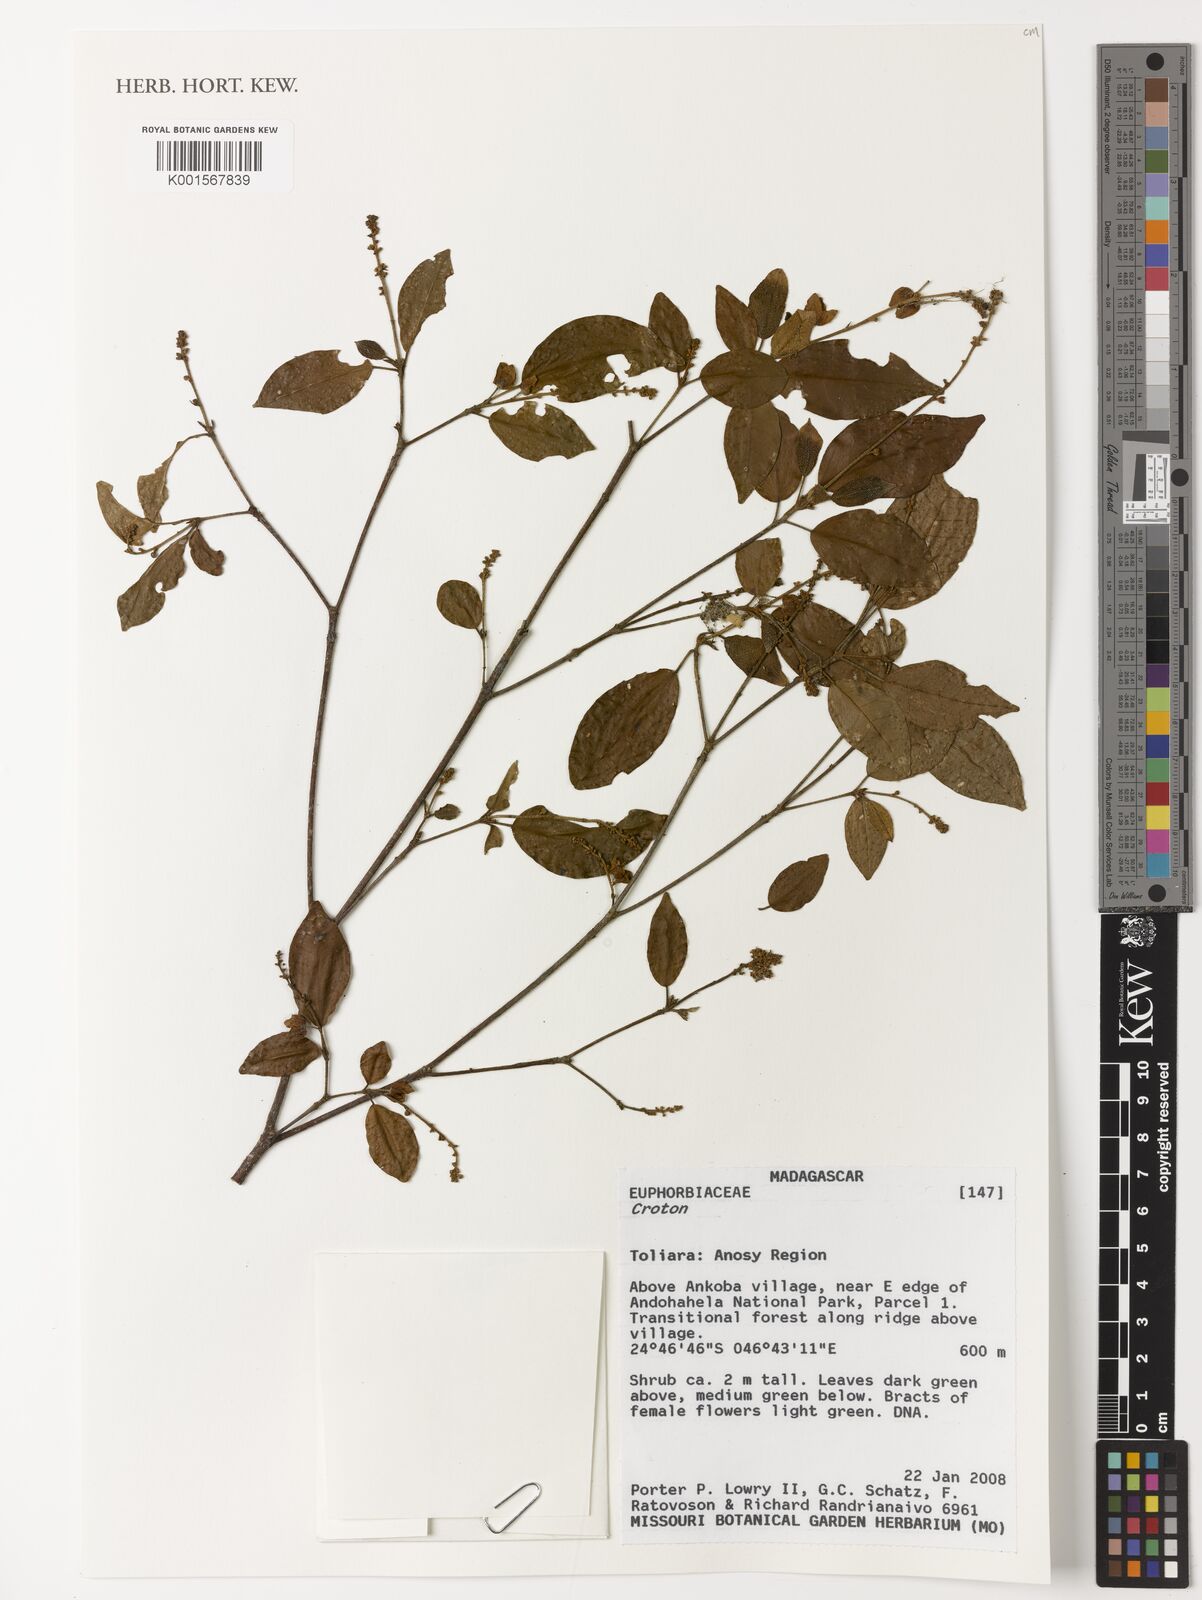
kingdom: Plantae
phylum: Tracheophyta
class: Magnoliopsida
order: Malpighiales
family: Euphorbiaceae
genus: Croton
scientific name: Croton
